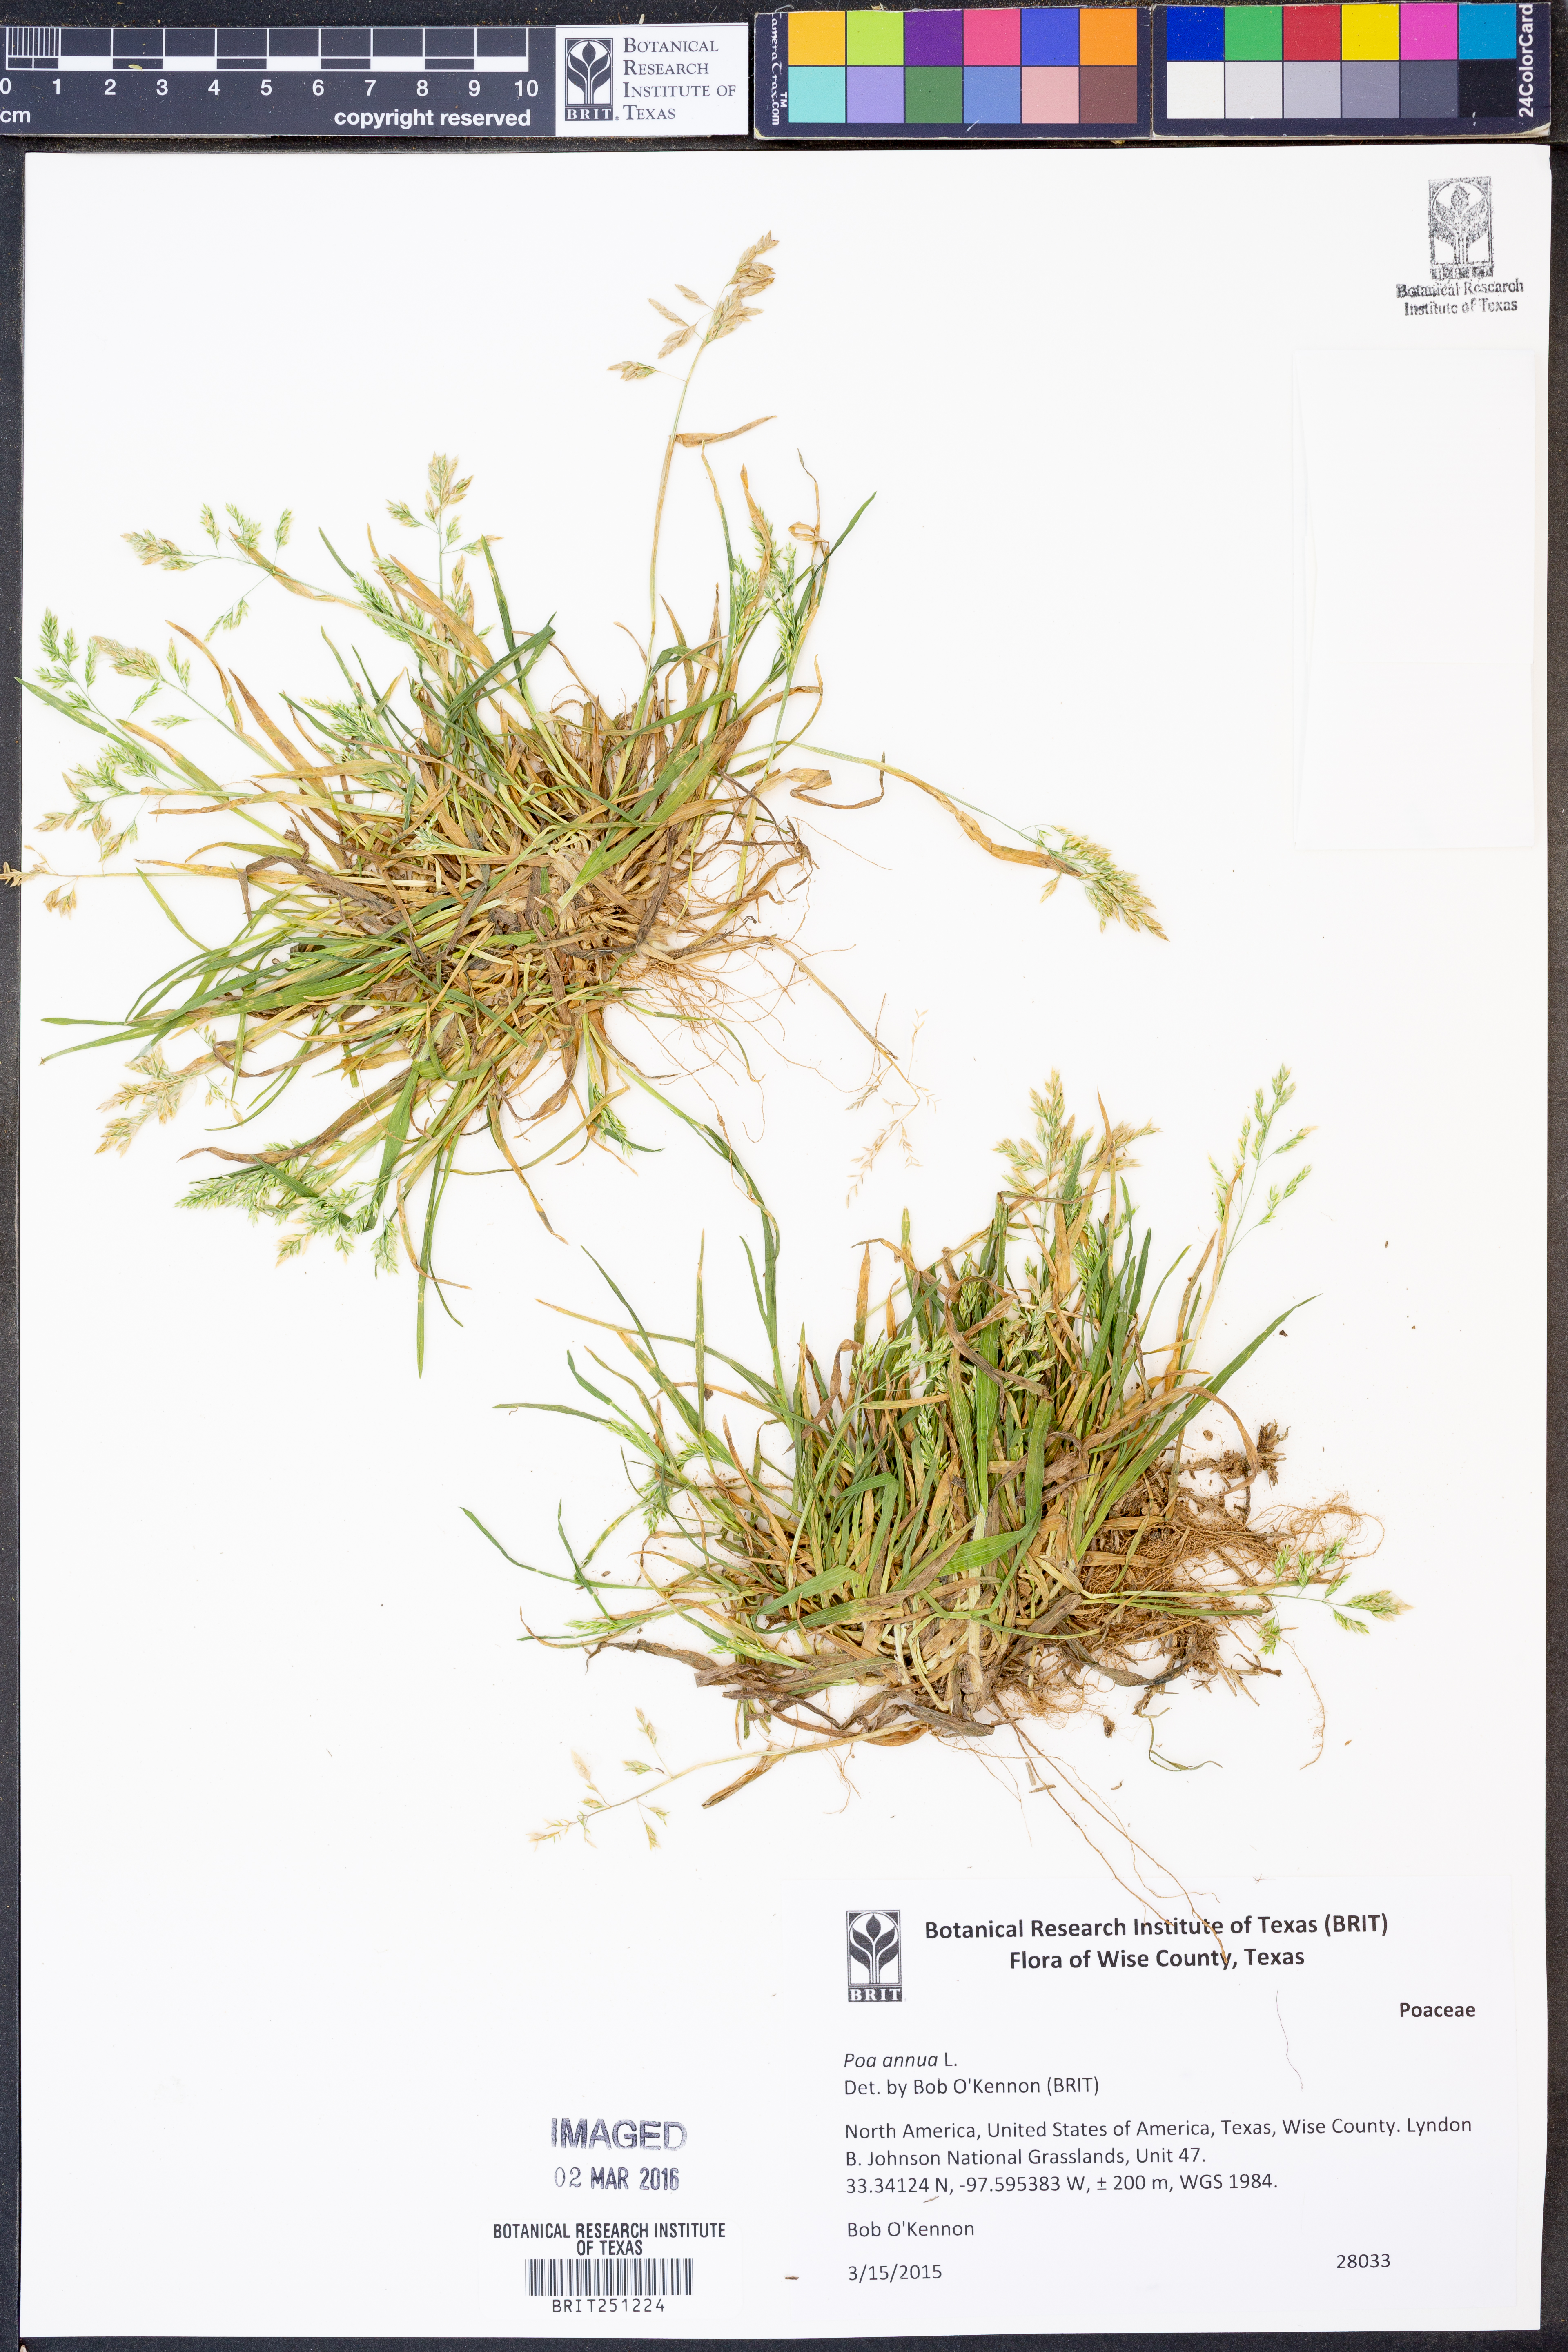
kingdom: Plantae
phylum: Tracheophyta
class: Liliopsida
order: Poales
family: Poaceae
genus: Poa
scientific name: Poa annua
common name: Annual bluegrass
